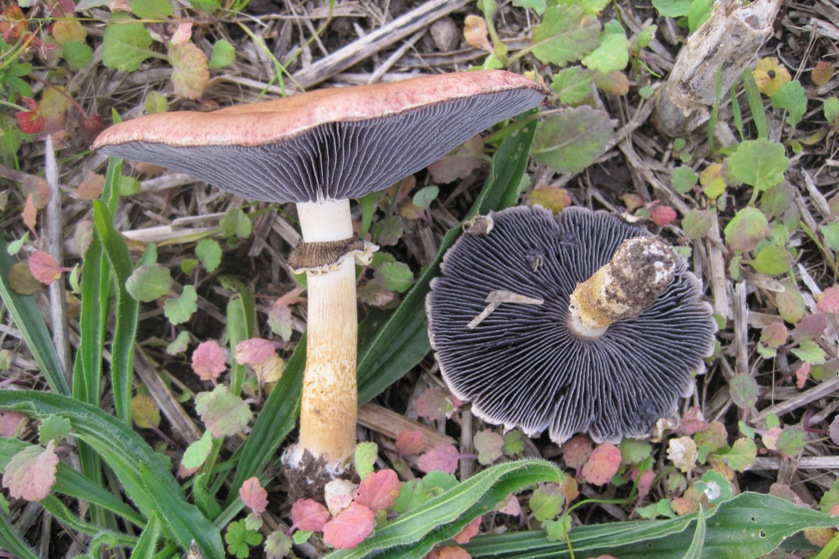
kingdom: Fungi
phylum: Basidiomycota
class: Agaricomycetes
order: Agaricales
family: Strophariaceae
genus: Stropharia
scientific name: Stropharia rugosoannulata
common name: rødbrun bredblad
